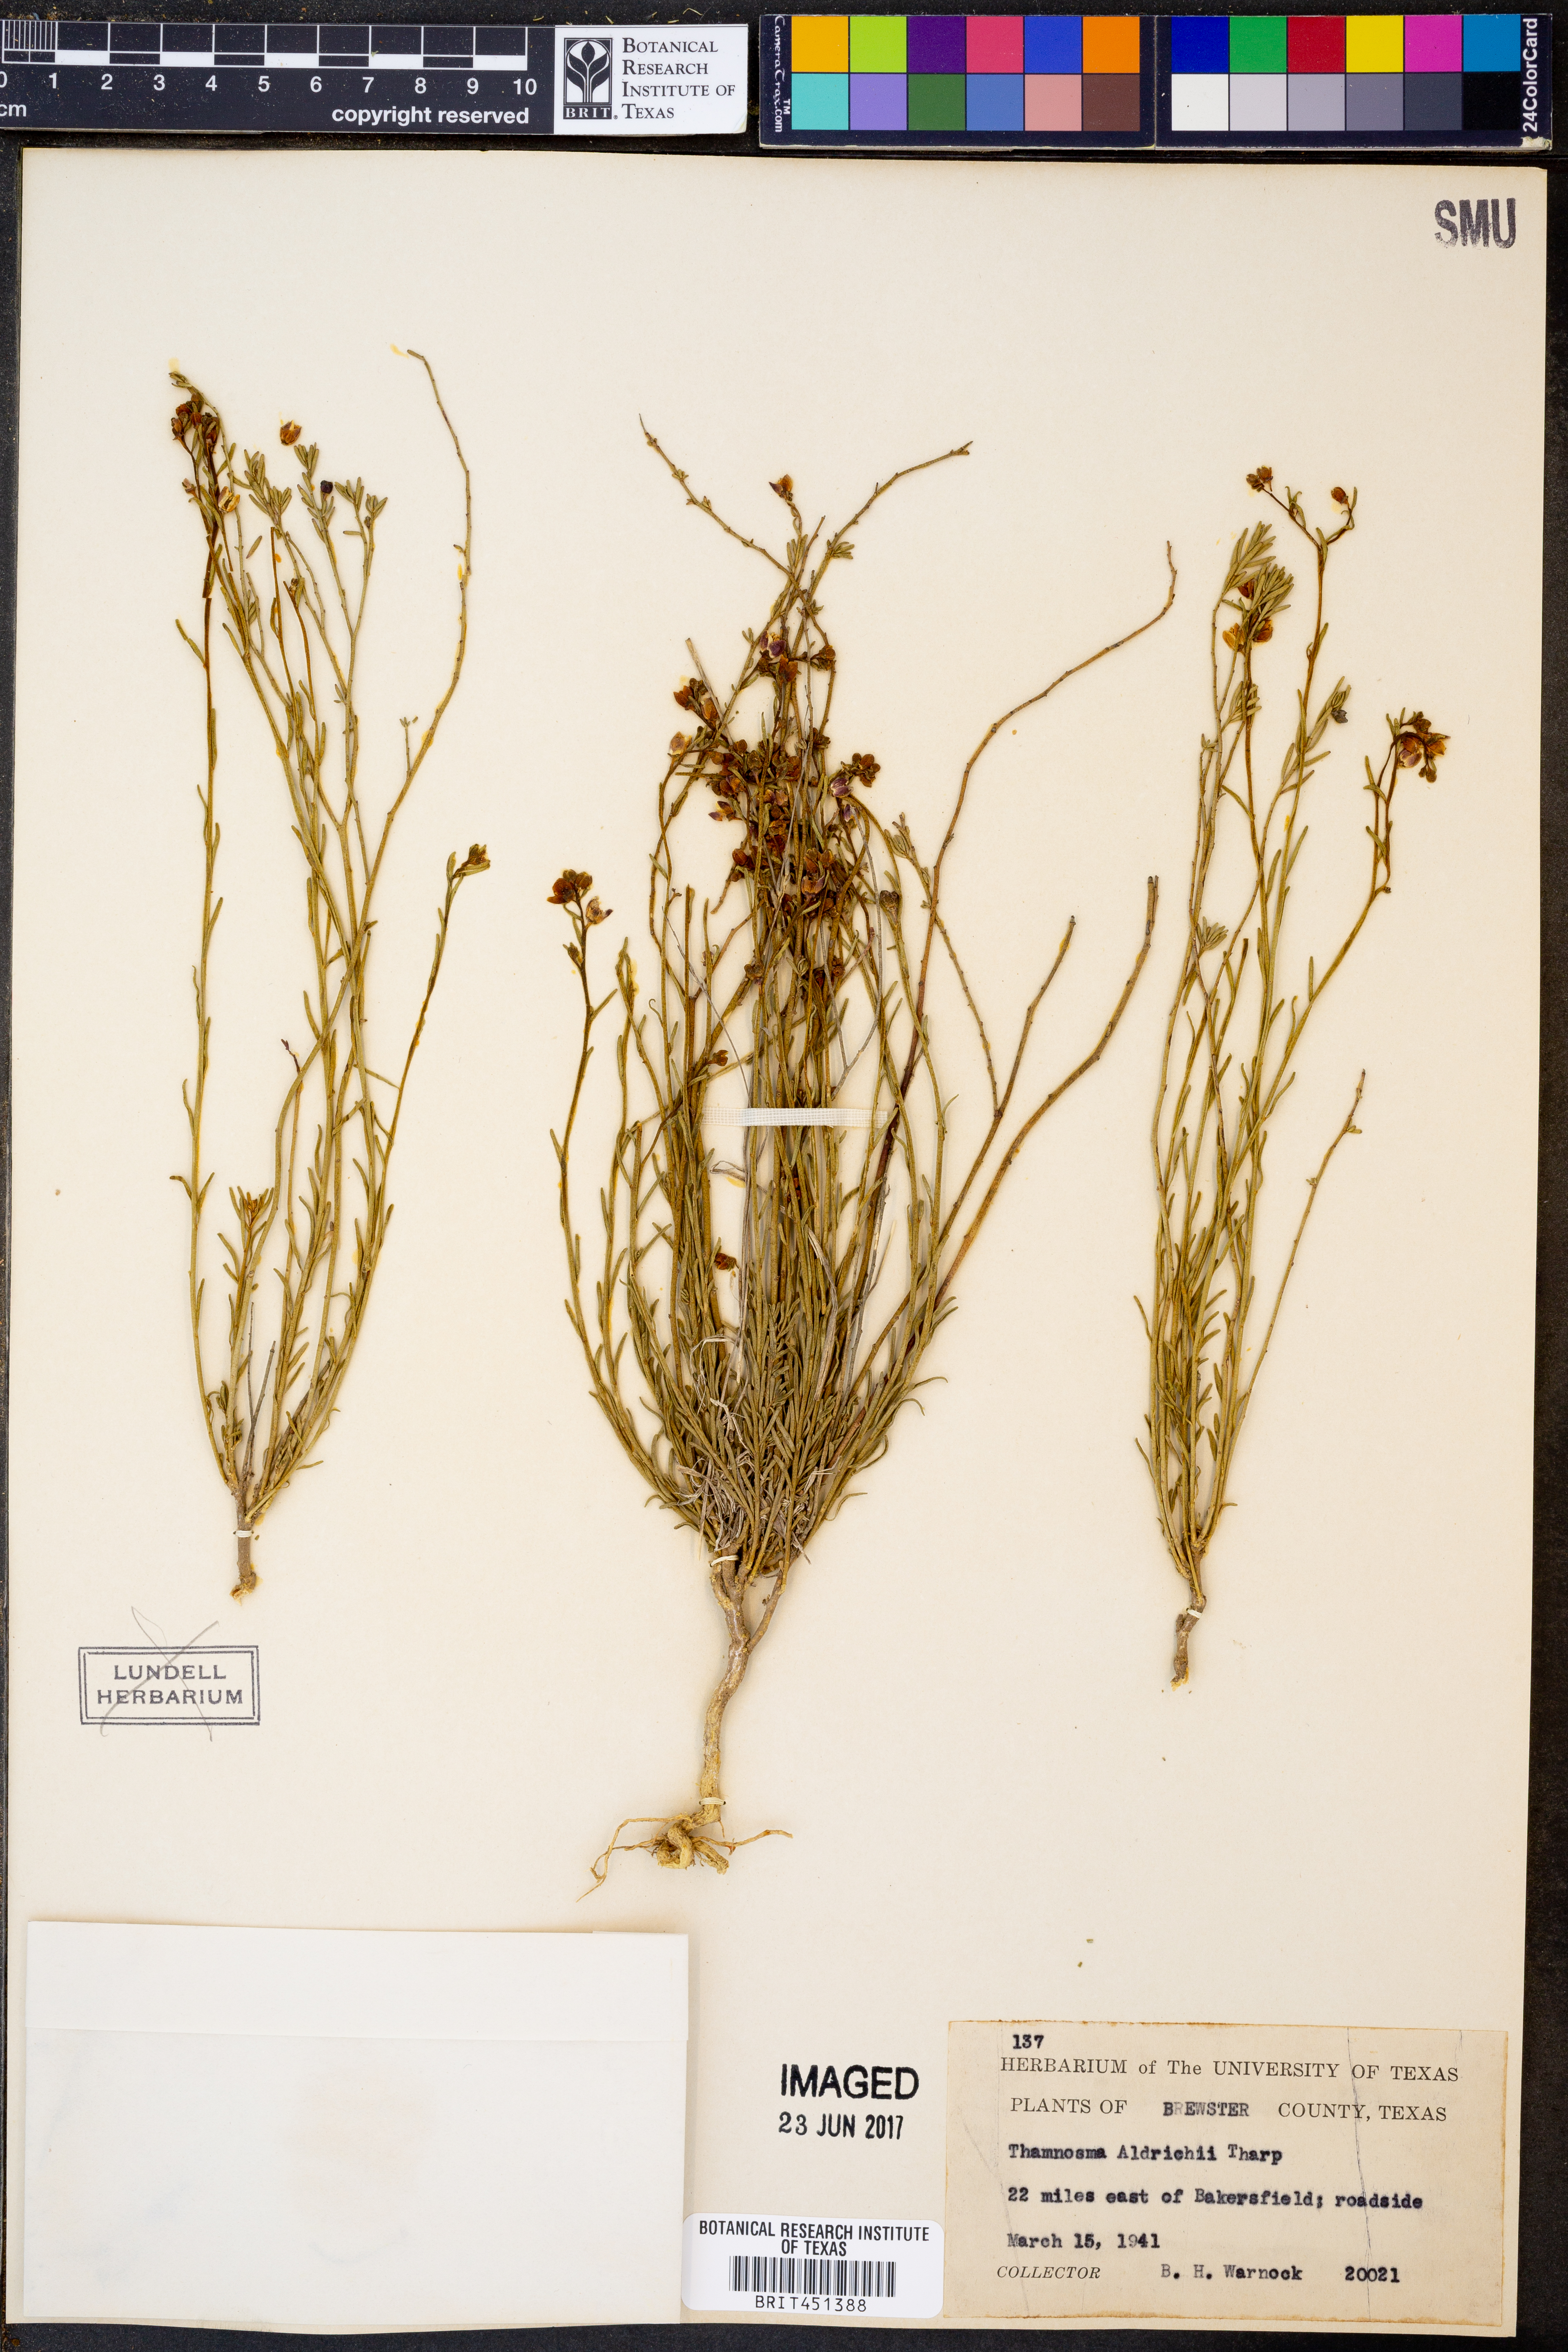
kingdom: Plantae
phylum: Tracheophyta
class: Magnoliopsida
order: Sapindales
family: Rutaceae
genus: Thamnosma
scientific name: Thamnosma texana
